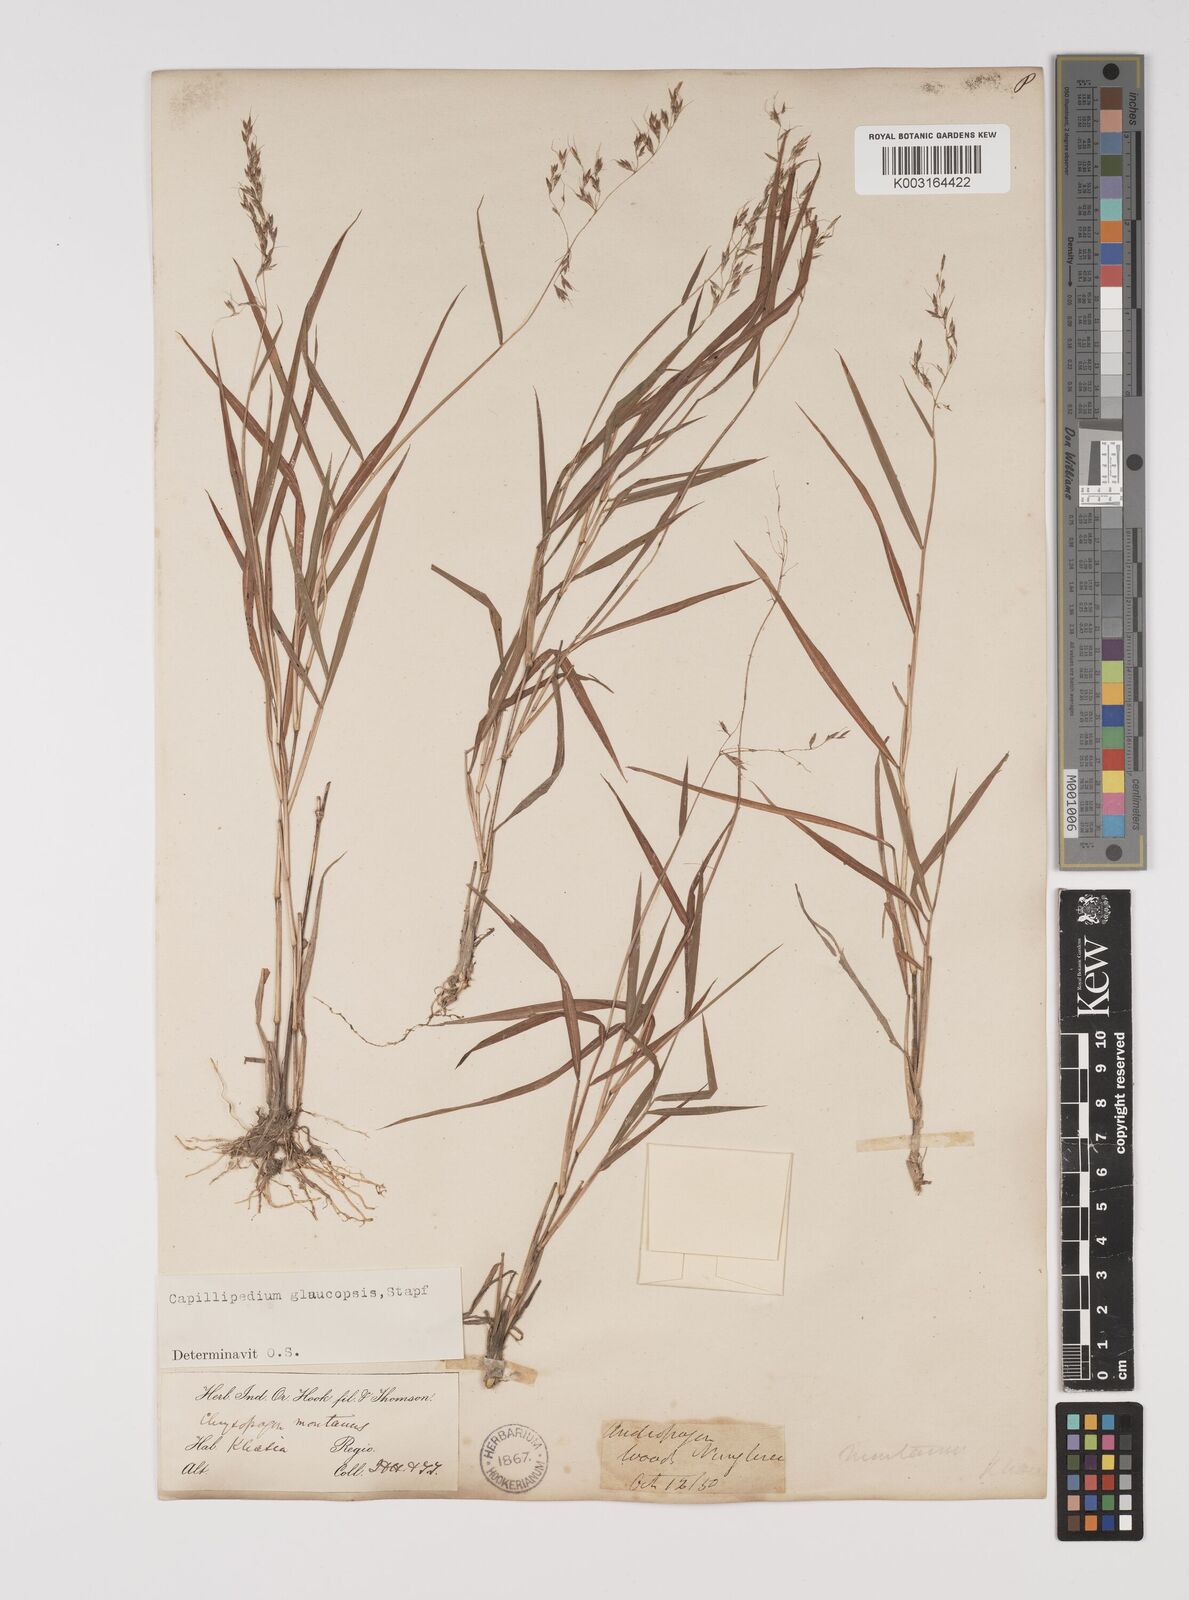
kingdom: Plantae
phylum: Tracheophyta
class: Liliopsida
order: Poales
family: Poaceae
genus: Capillipedium
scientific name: Capillipedium assimile
